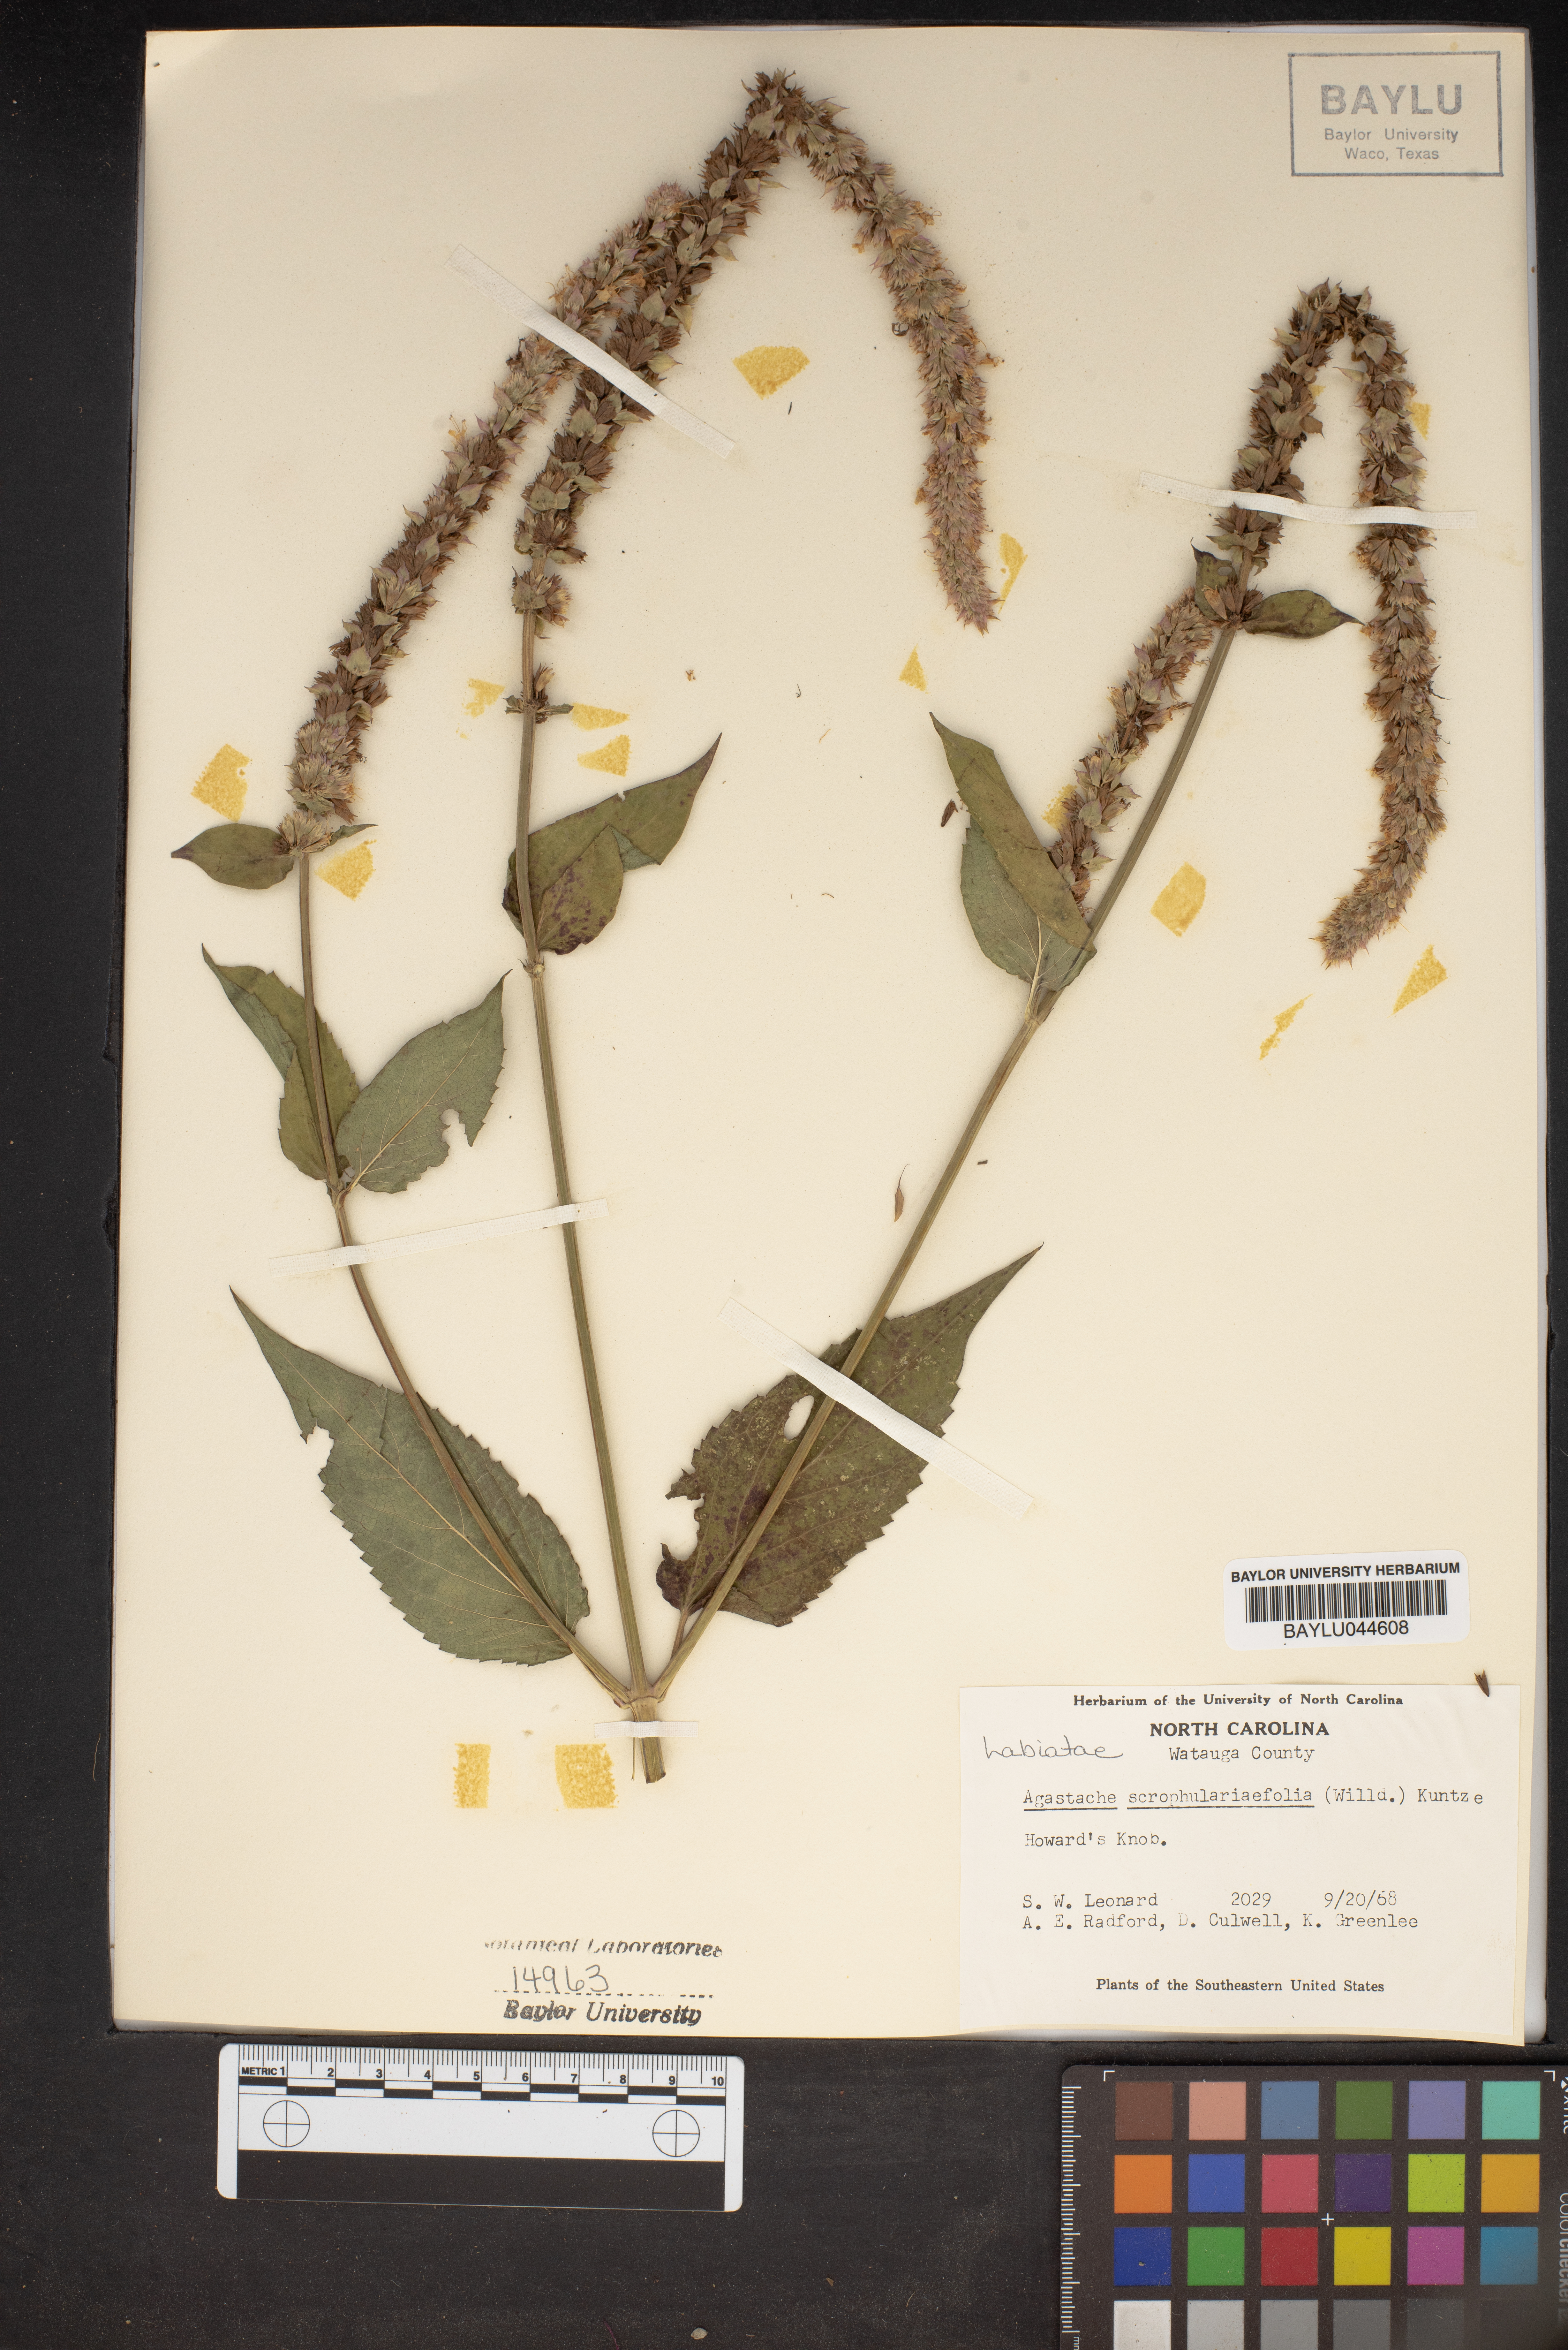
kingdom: Plantae
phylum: Tracheophyta
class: Magnoliopsida
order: Lamiales
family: Lamiaceae
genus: Agastache
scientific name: Agastache scrophulariifolia
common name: Figwort giant hyssop
